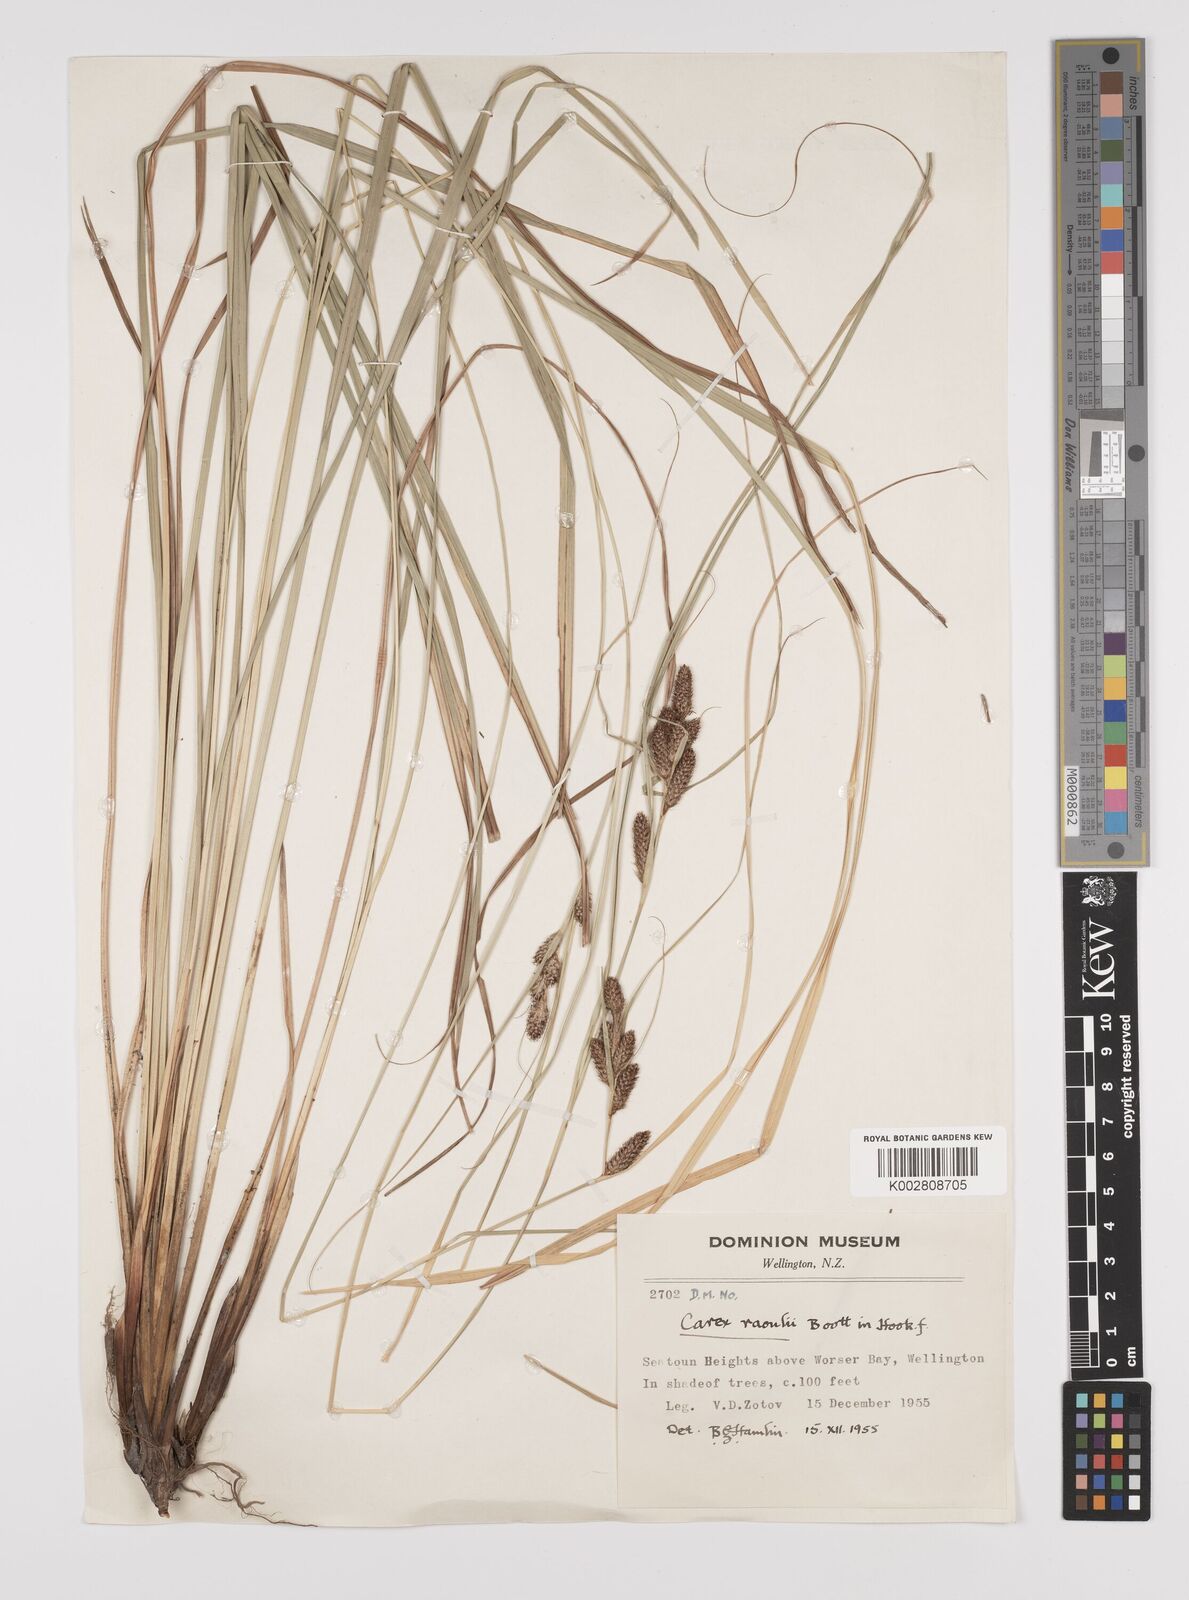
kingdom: Plantae
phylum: Tracheophyta
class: Liliopsida
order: Poales
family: Cyperaceae
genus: Carex
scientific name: Carex raoulii
